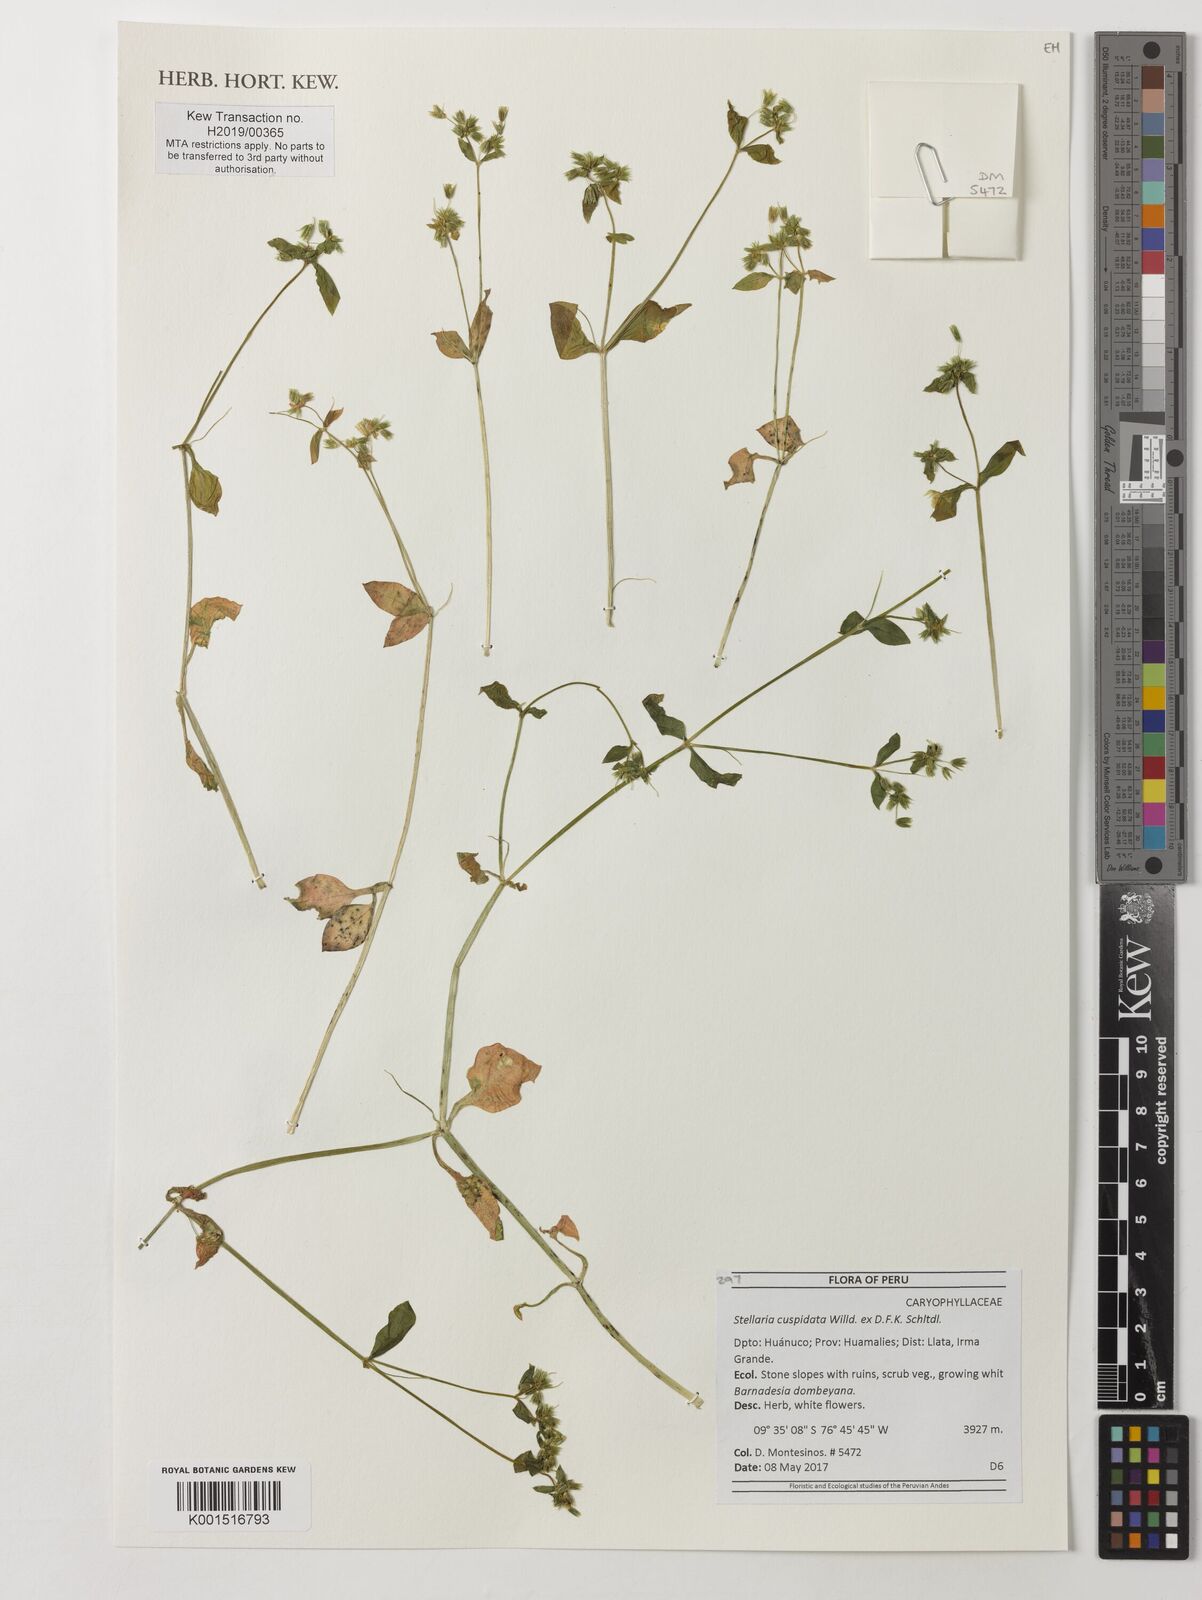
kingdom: Plantae
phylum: Tracheophyta
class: Magnoliopsida
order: Caryophyllales
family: Caryophyllaceae
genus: Stellaria
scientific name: Stellaria cuspidata
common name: Mexican chickweed
